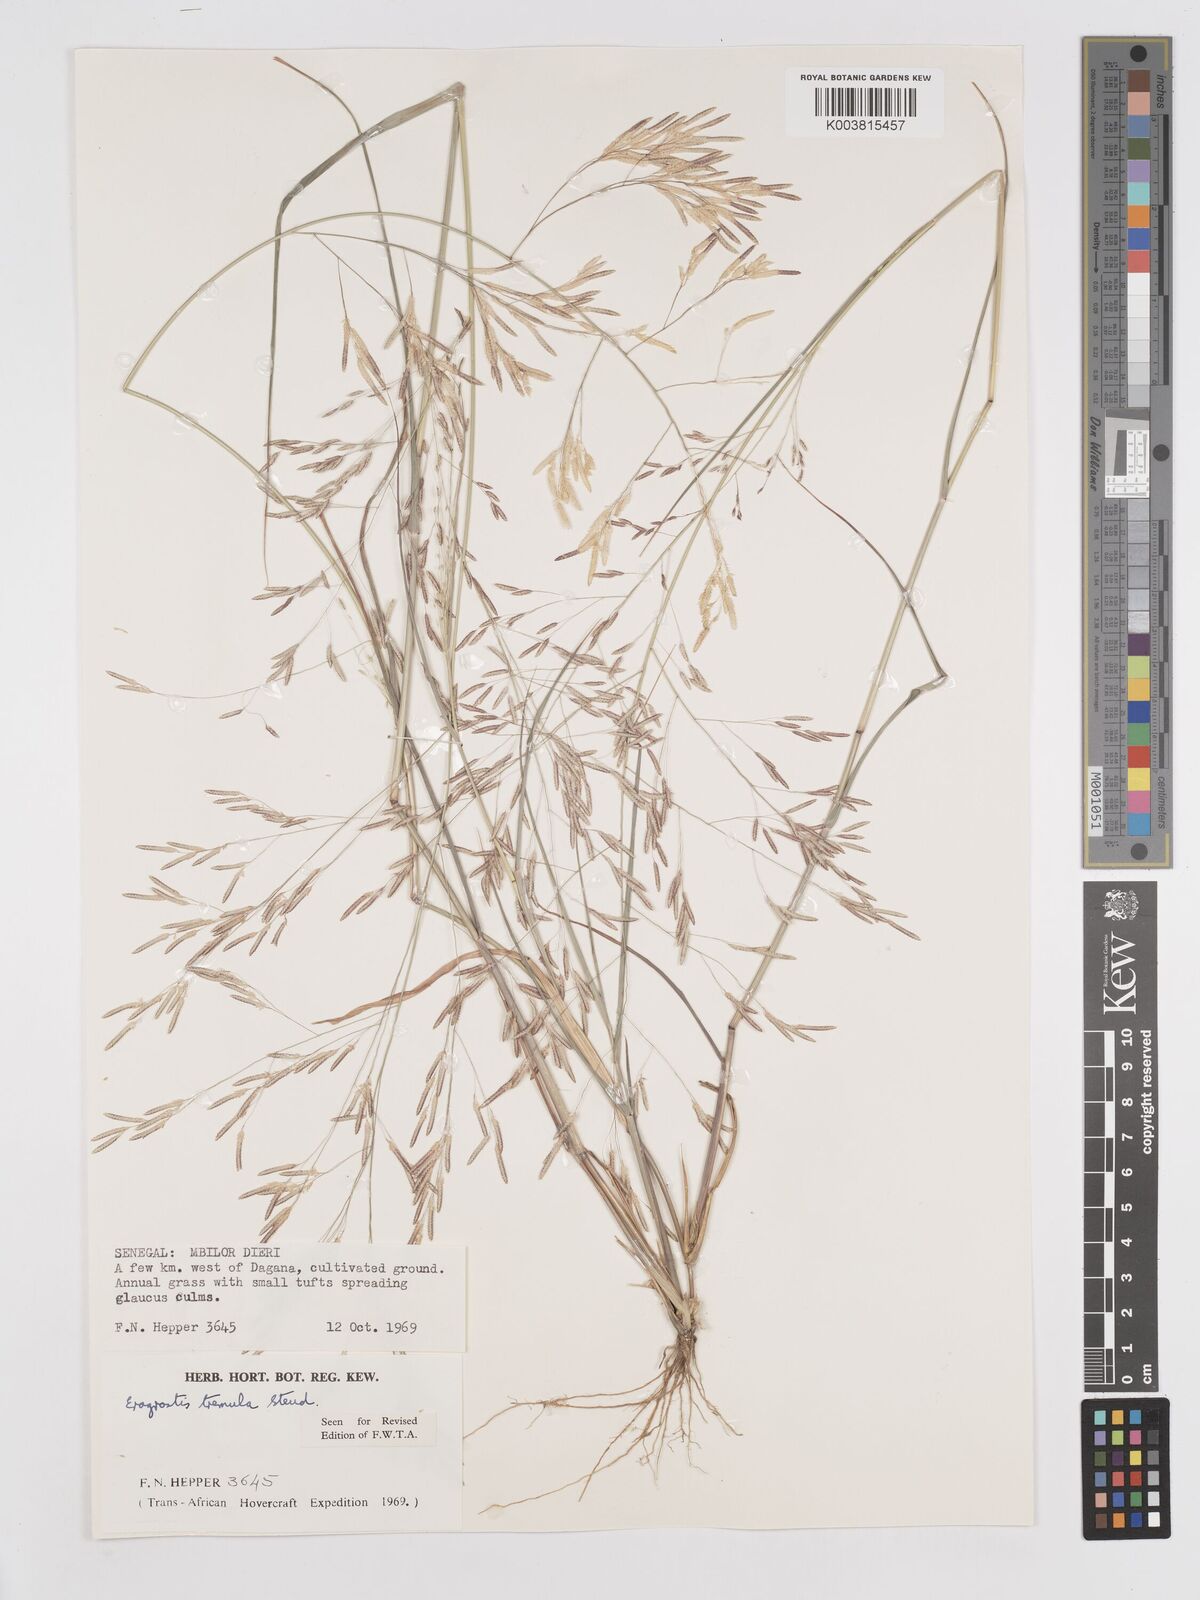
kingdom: Plantae
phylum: Tracheophyta
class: Liliopsida
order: Poales
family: Poaceae
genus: Eragrostis
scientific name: Eragrostis tremula
